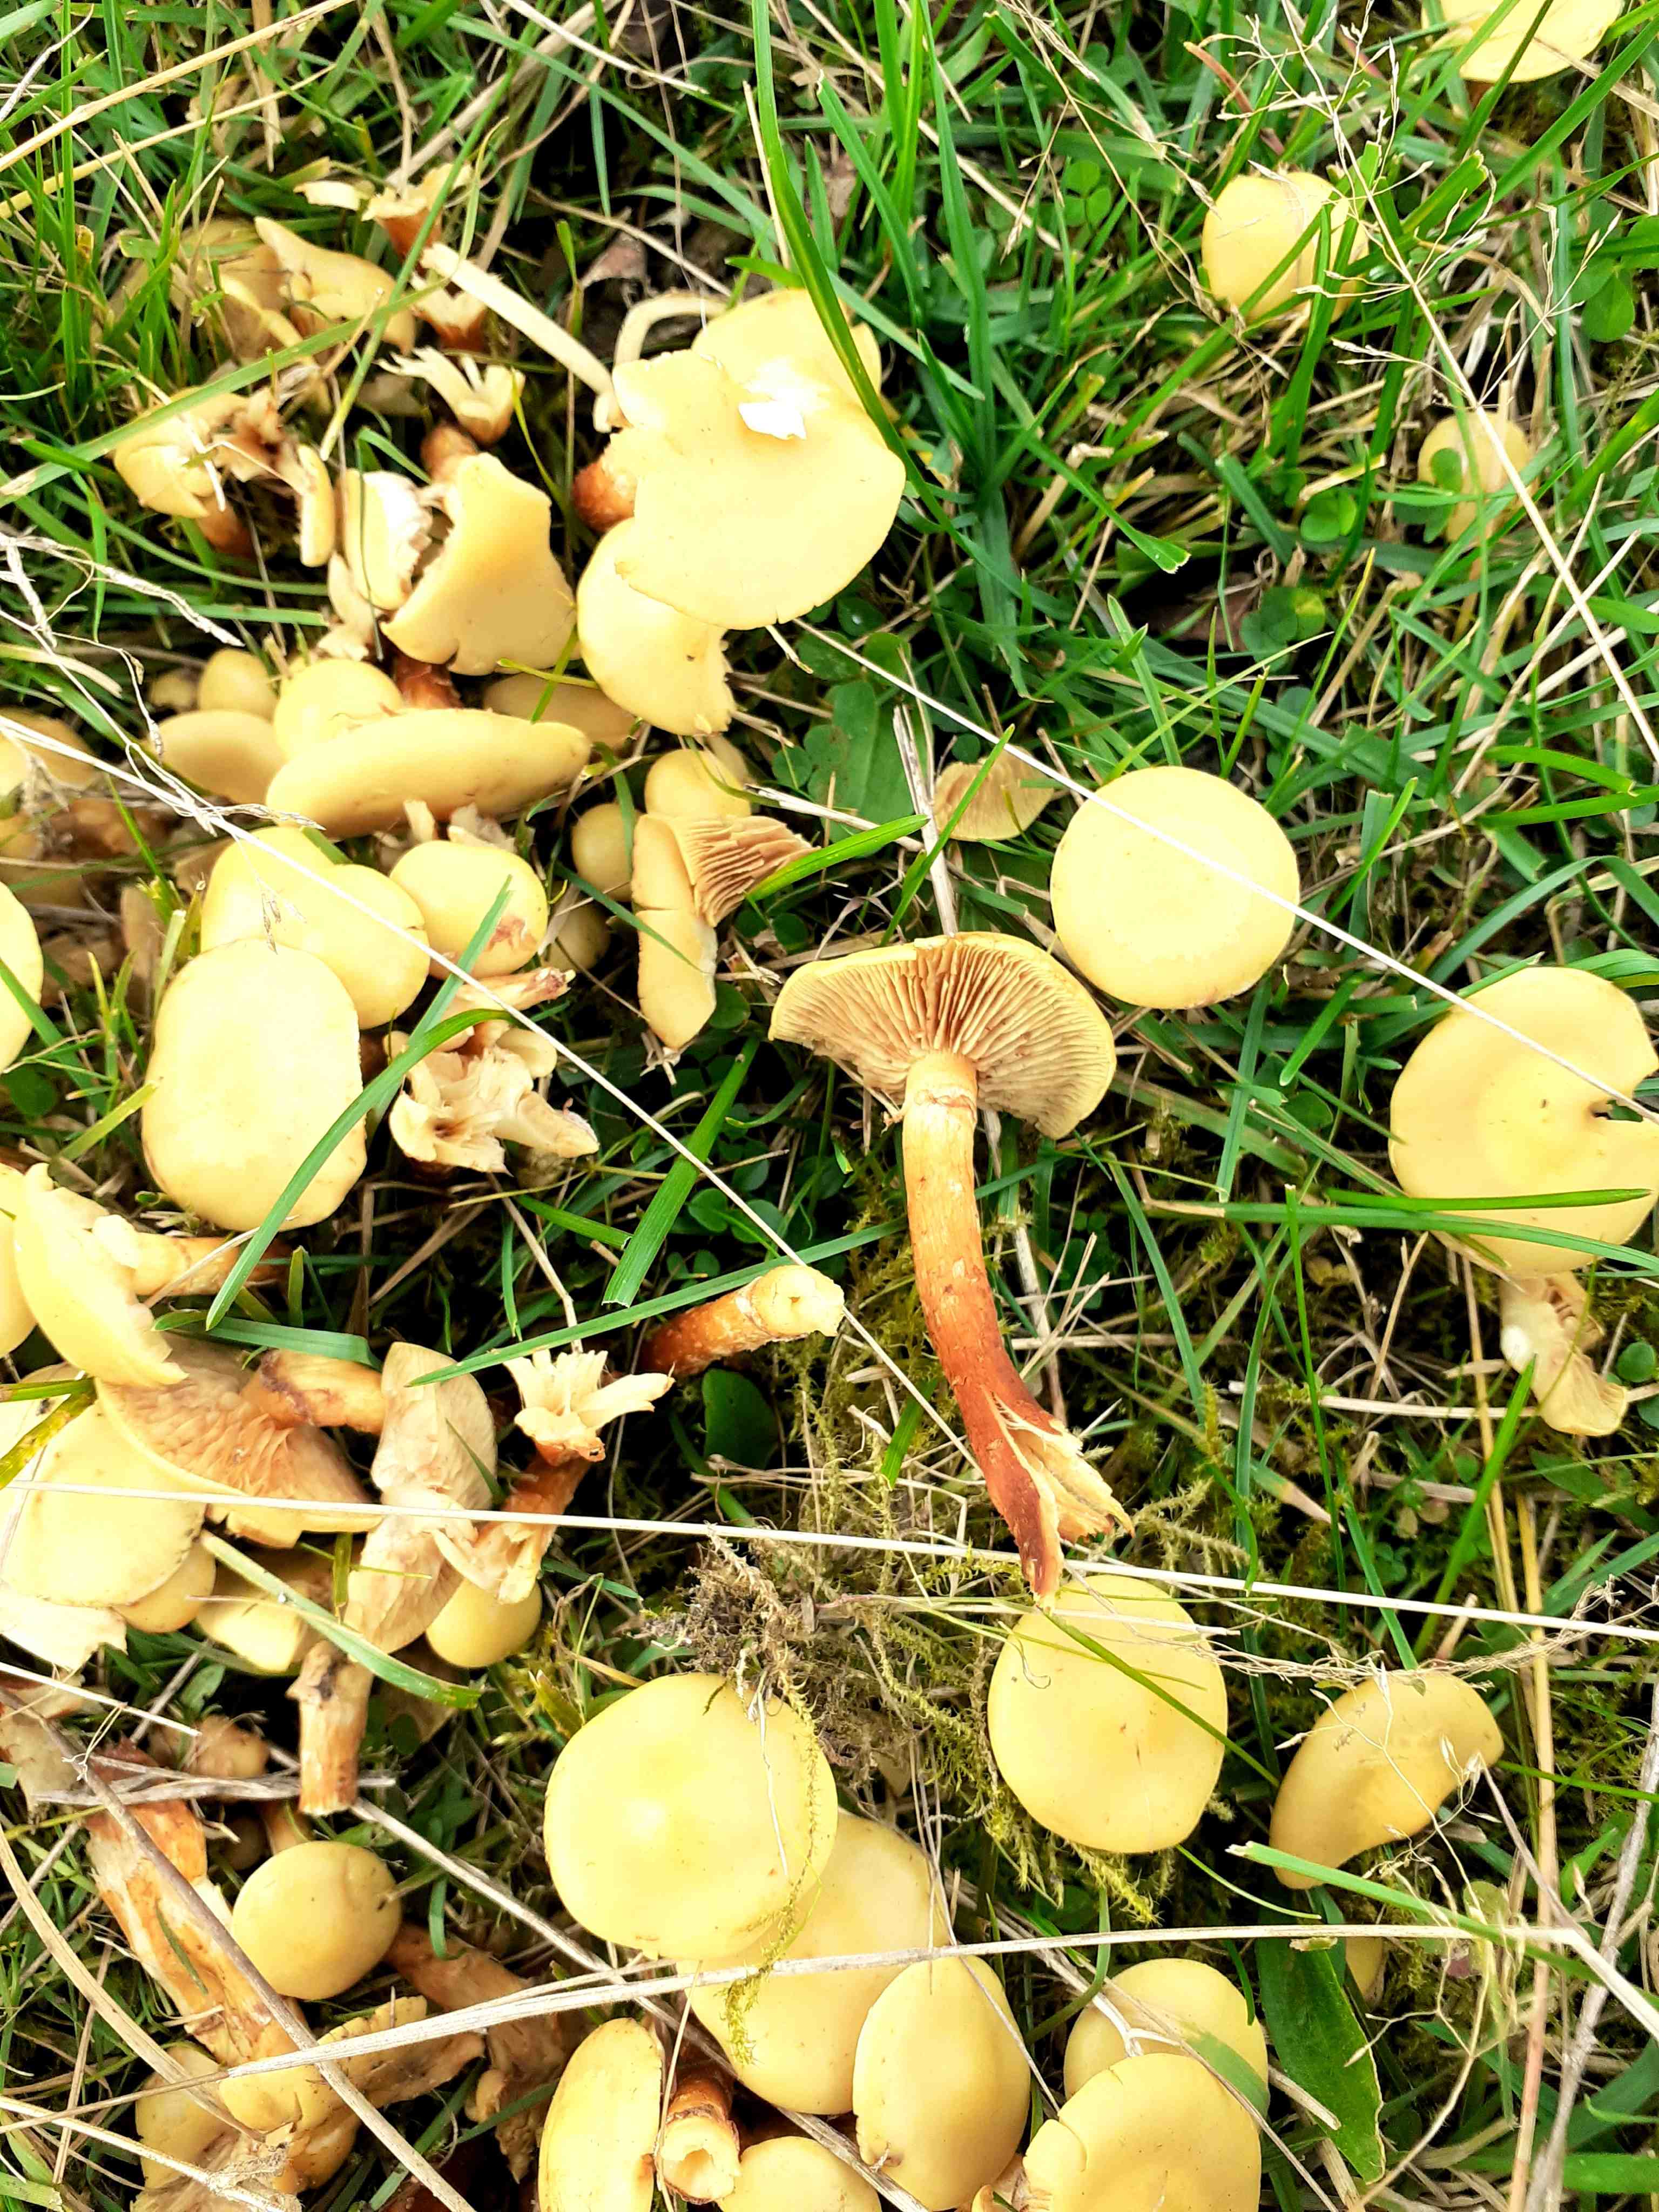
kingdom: Fungi
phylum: Basidiomycota
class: Agaricomycetes
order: Agaricales
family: Hymenogastraceae
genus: Flammula
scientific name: Flammula alnicola
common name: elle-skælhat
